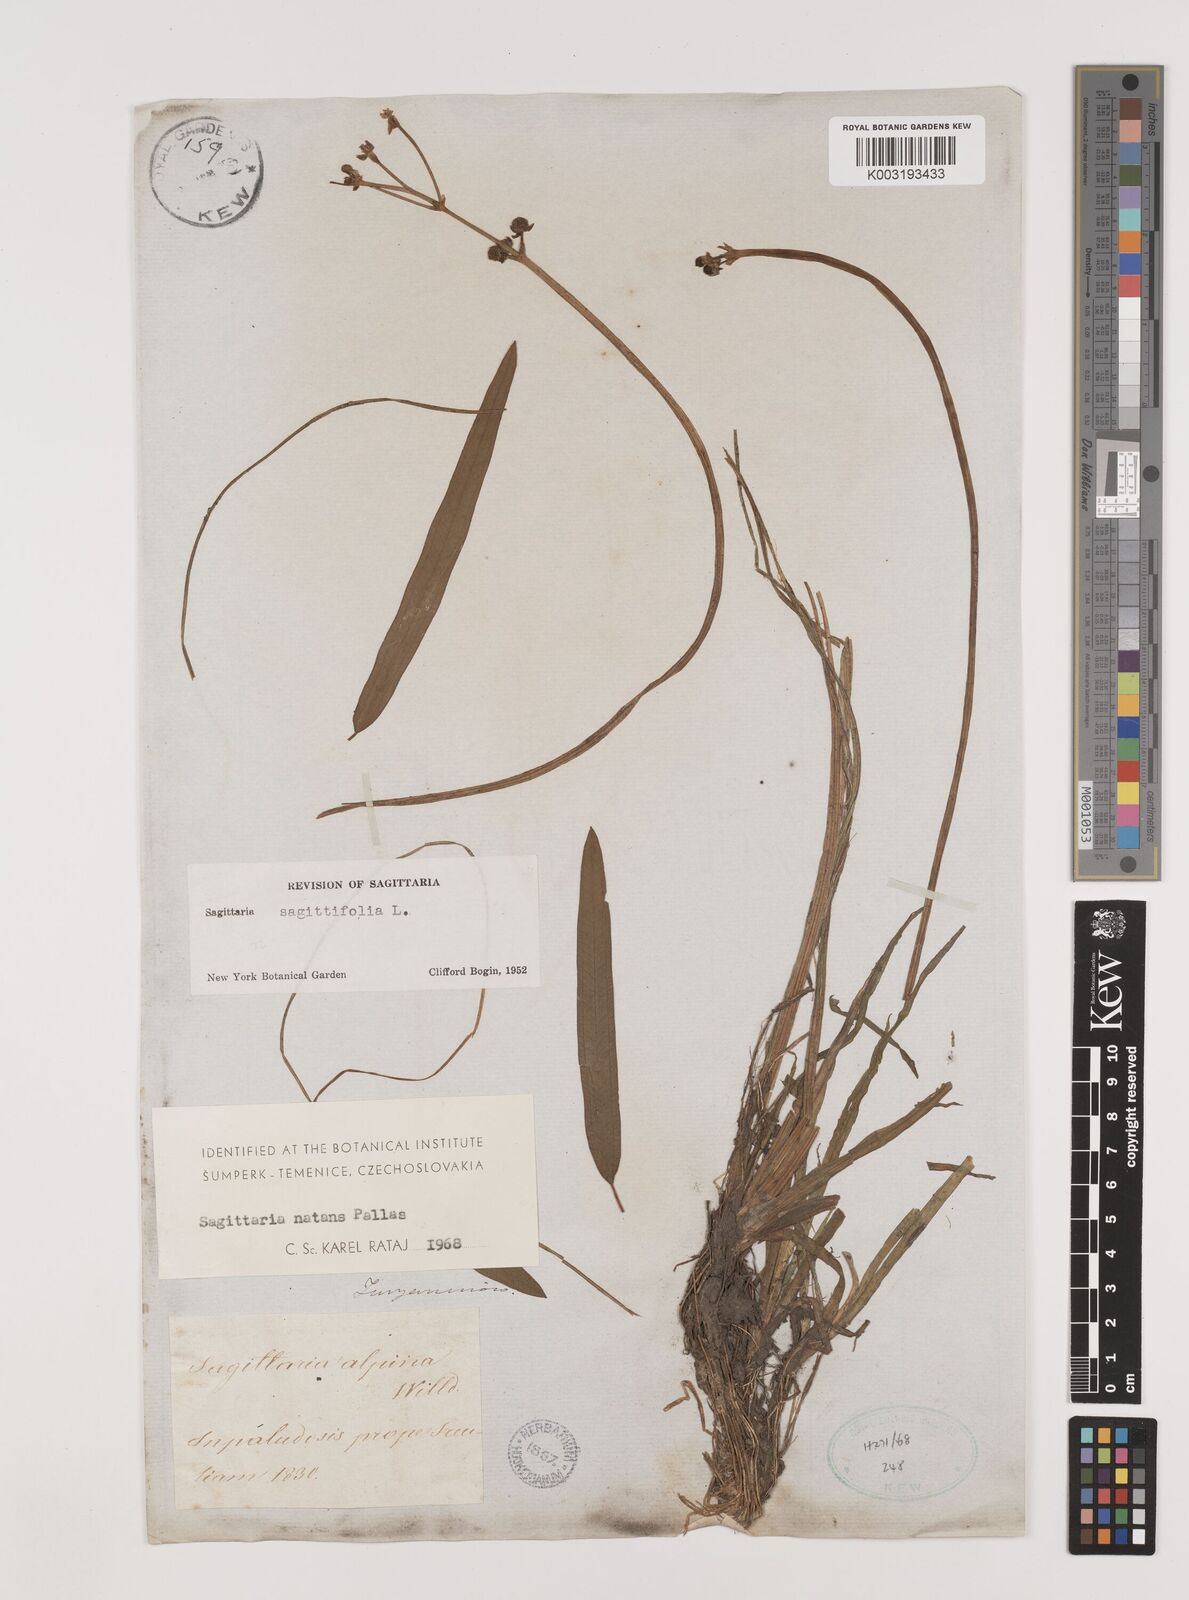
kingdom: Plantae
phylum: Tracheophyta
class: Liliopsida
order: Alismatales
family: Alismataceae
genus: Sagittaria
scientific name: Sagittaria natans
